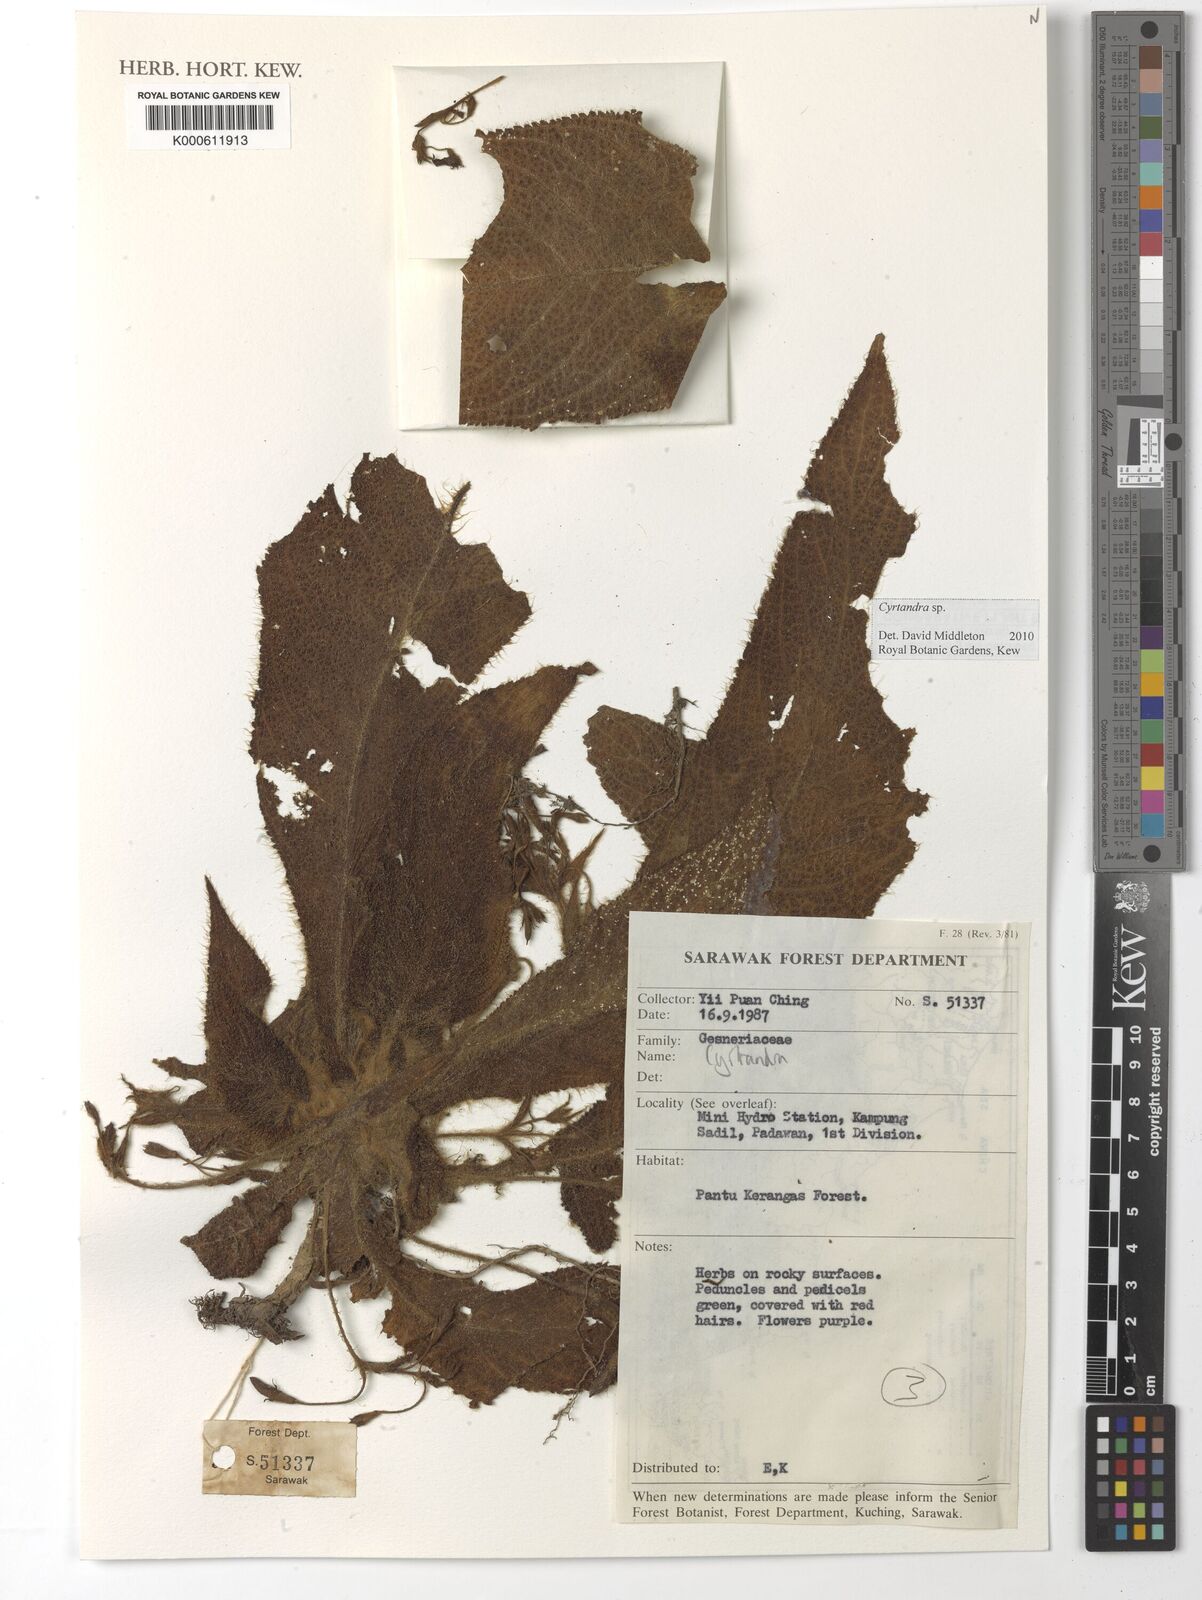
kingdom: Plantae
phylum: Tracheophyta
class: Magnoliopsida
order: Lamiales
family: Gesneriaceae
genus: Cyrtandra
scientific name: Cyrtandra
